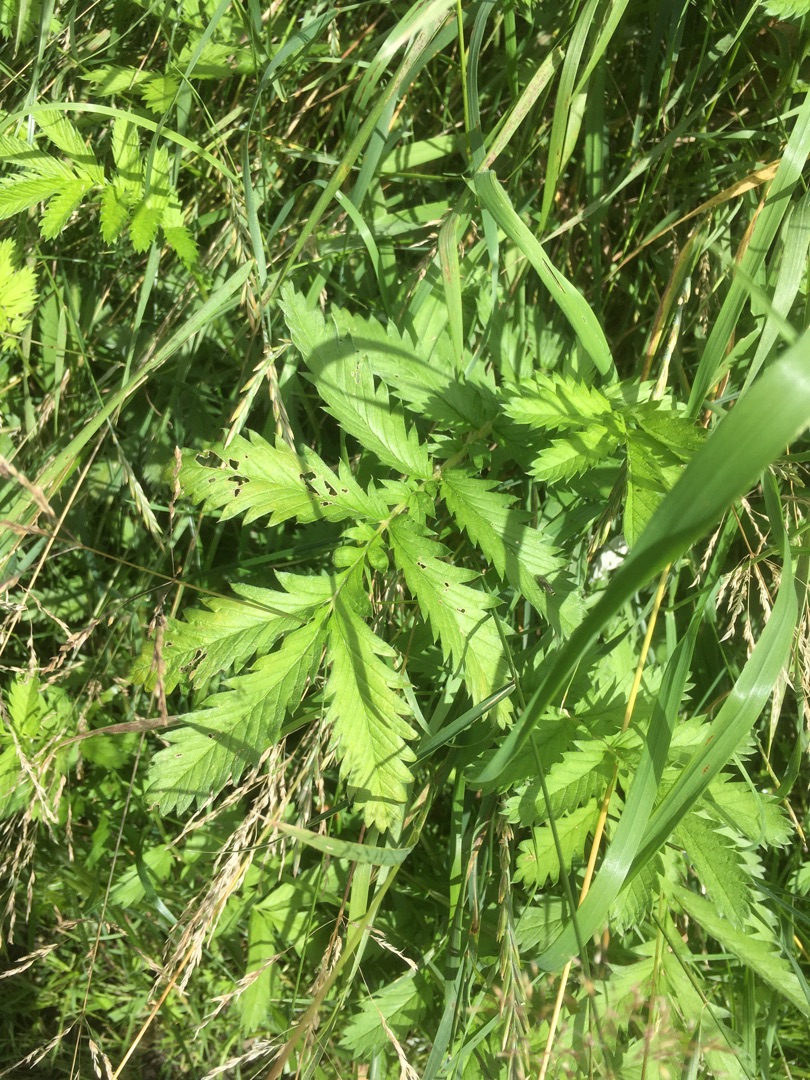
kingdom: Plantae
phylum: Tracheophyta
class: Magnoliopsida
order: Rosales
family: Rosaceae
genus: Argentina
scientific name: Argentina anserina
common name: Gåsepotentil
